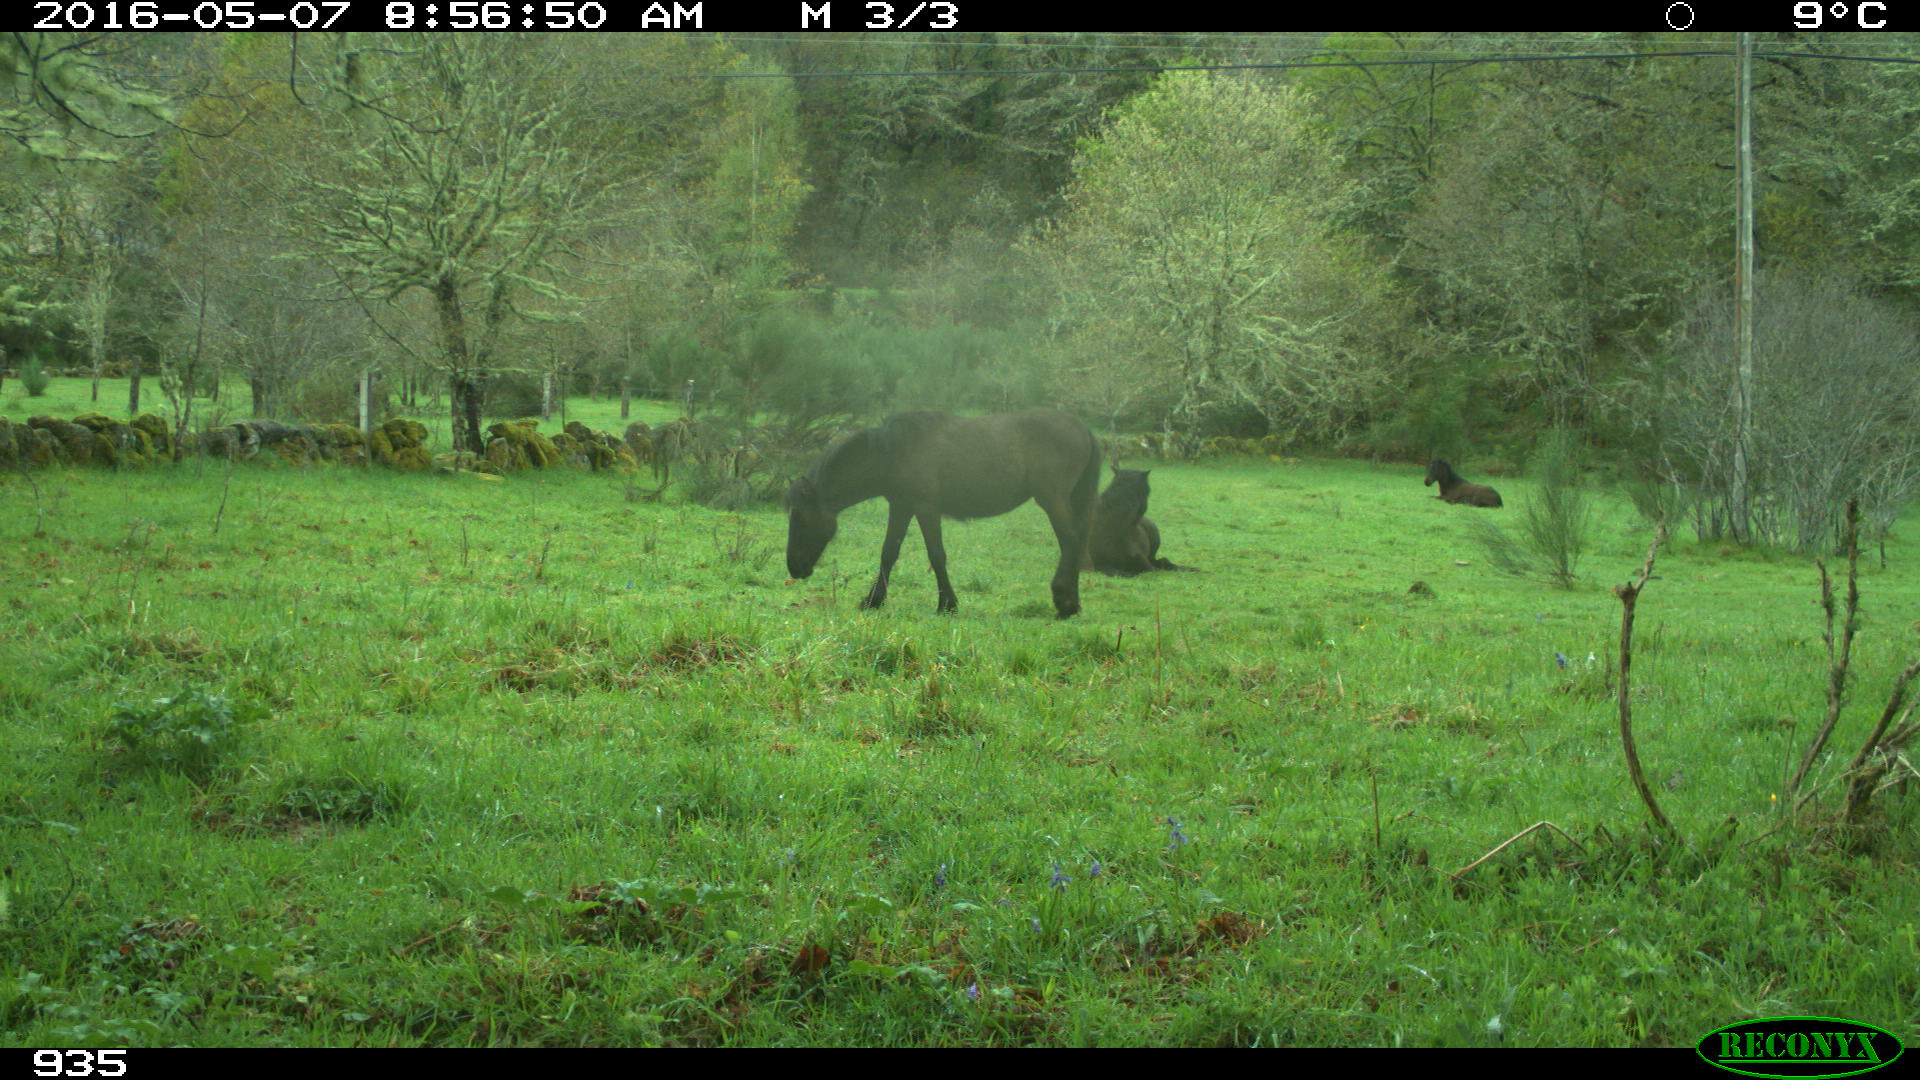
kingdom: Animalia
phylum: Chordata
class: Mammalia
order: Perissodactyla
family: Equidae
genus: Equus
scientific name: Equus caballus
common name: Horse
